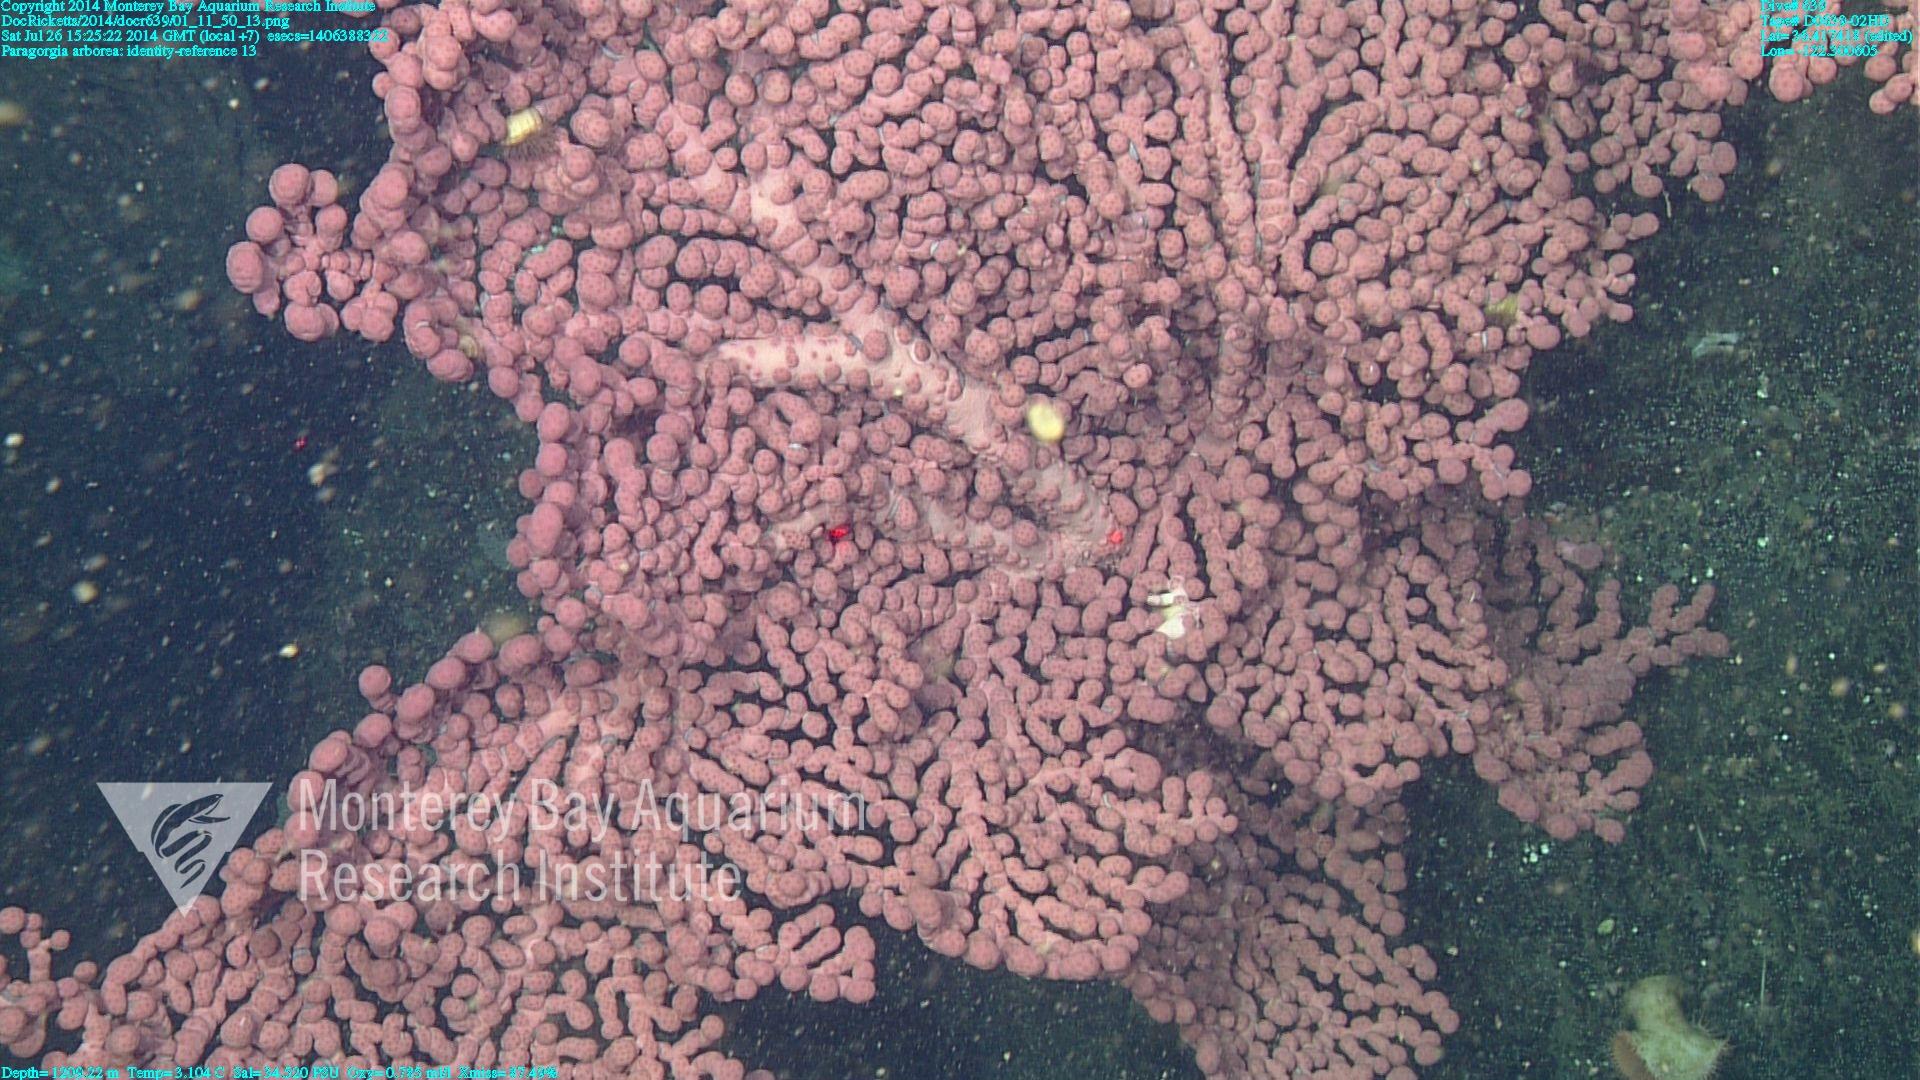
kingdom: Animalia
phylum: Cnidaria
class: Anthozoa
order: Scleralcyonacea
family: Coralliidae
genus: Paragorgia
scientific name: Paragorgia arborea
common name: Bubble gum coral
